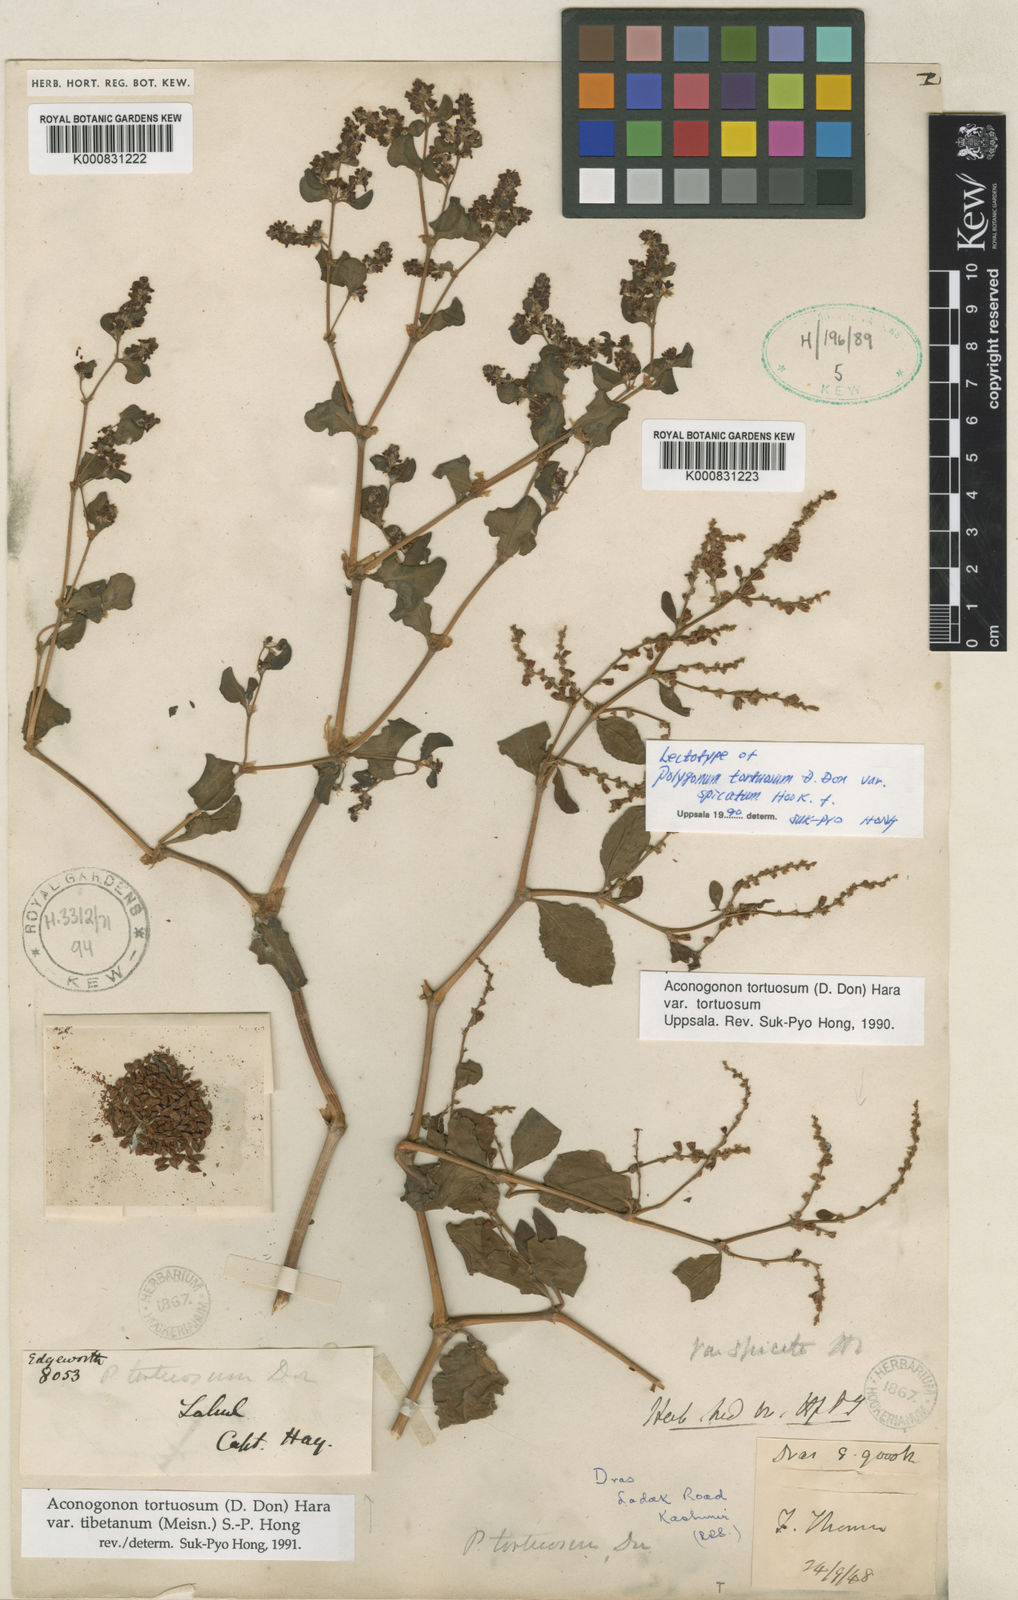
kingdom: Plantae
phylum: Tracheophyta
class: Magnoliopsida
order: Caryophyllales
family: Polygonaceae
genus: Koenigia
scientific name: Koenigia tortuosa
